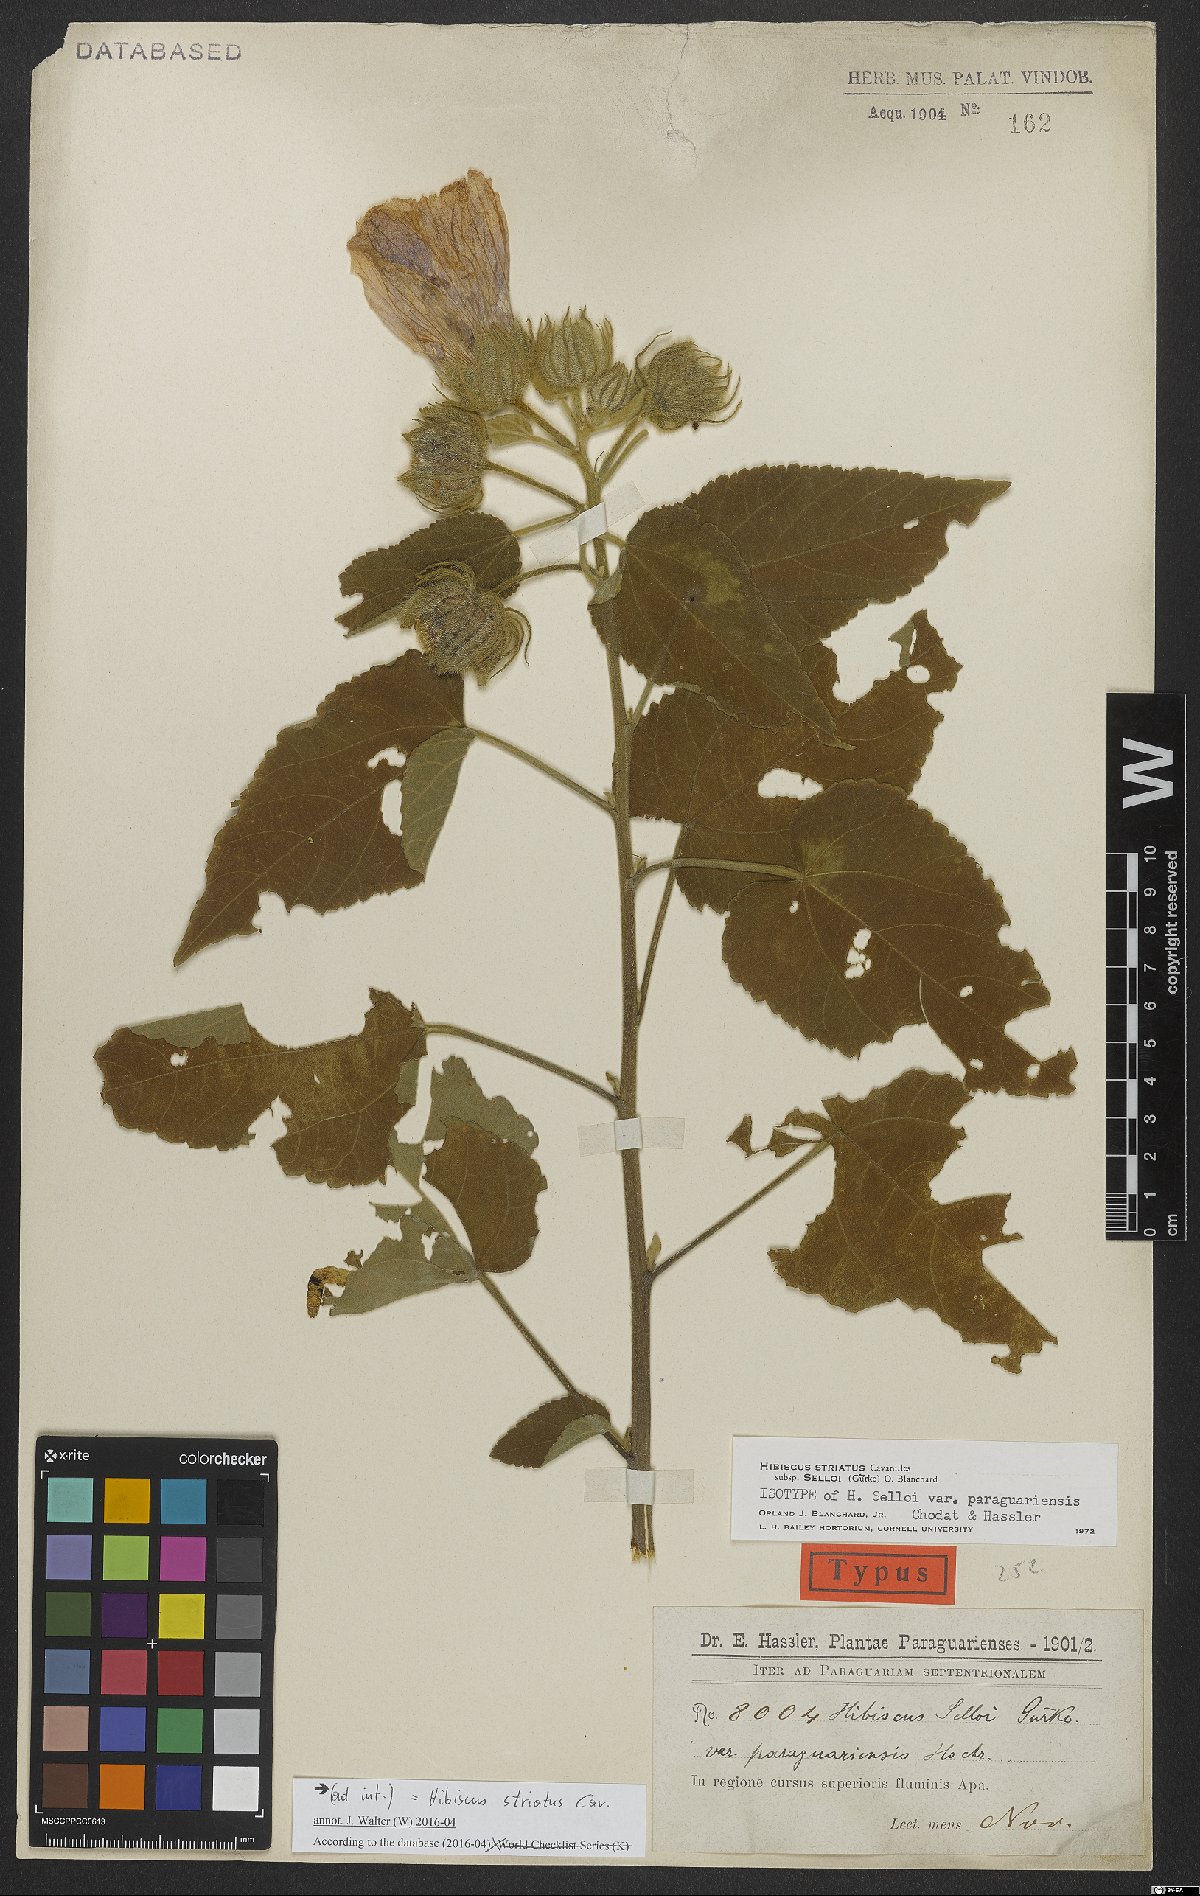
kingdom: Plantae
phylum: Tracheophyta
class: Magnoliopsida
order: Malvales
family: Malvaceae
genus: Hibiscus
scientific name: Hibiscus striatus
